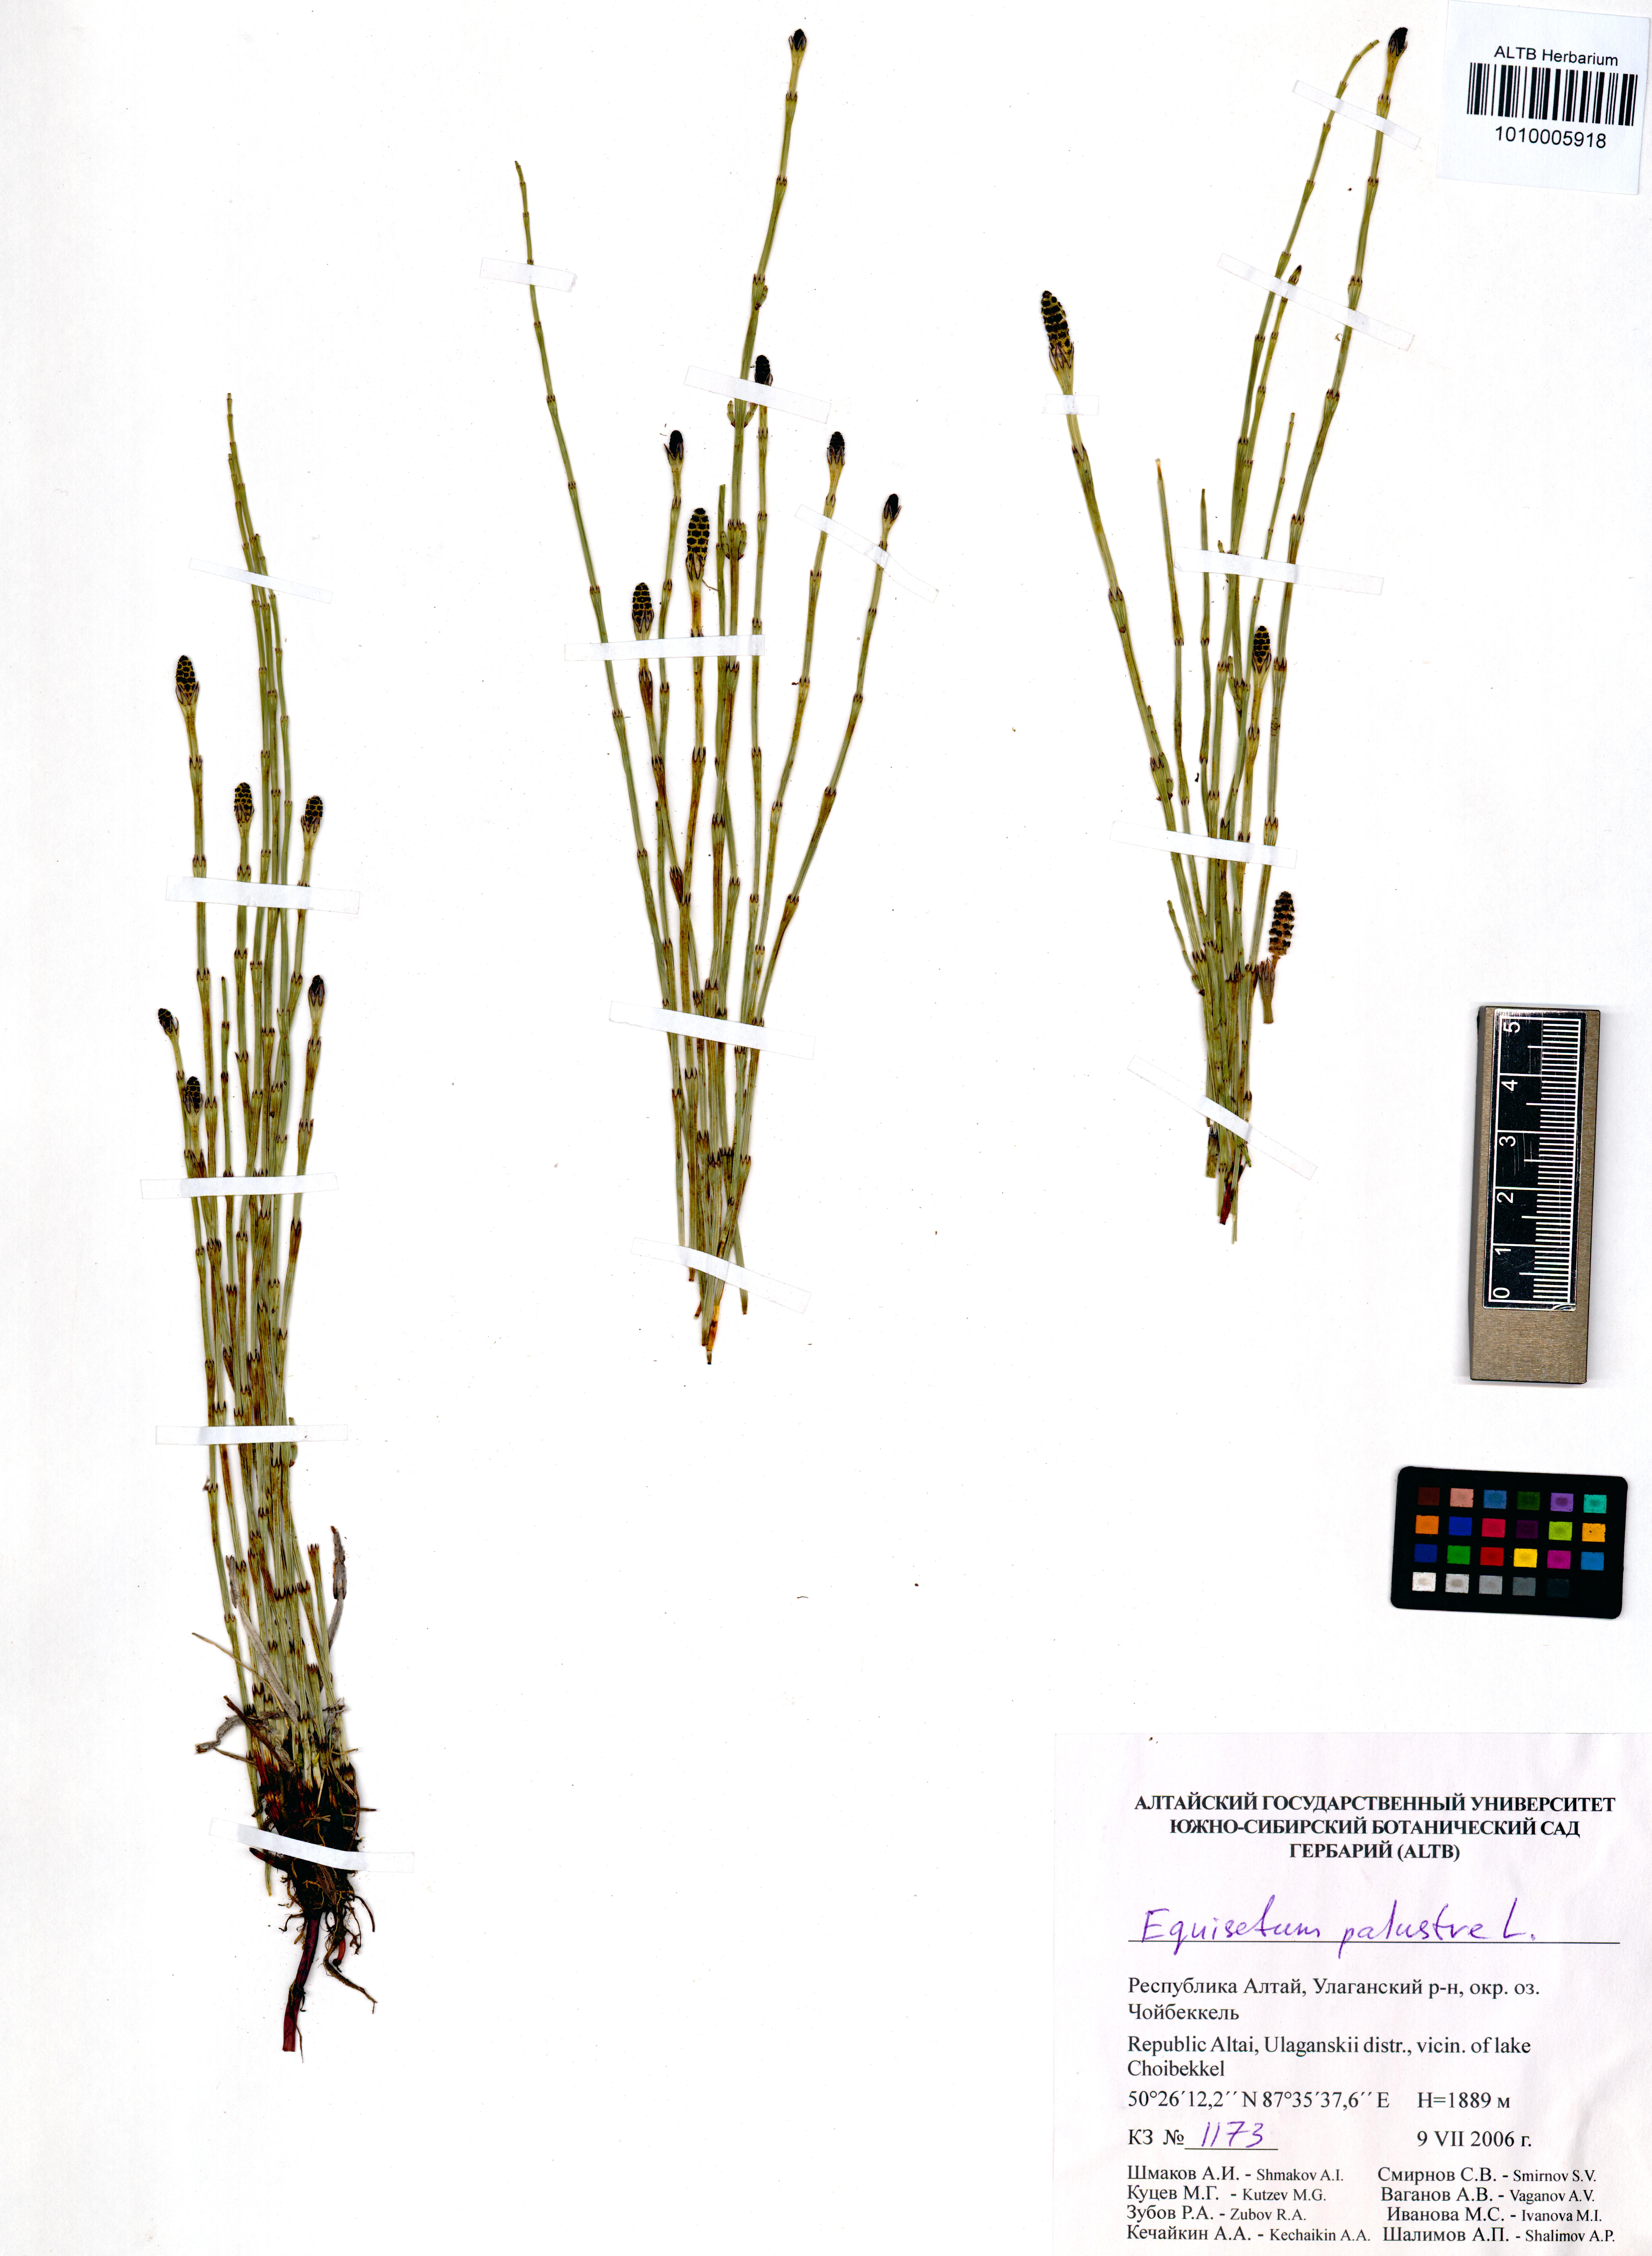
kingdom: Plantae
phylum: Tracheophyta
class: Polypodiopsida
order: Equisetales
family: Equisetaceae
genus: Equisetum
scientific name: Equisetum palustre
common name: Marsh horsetail
